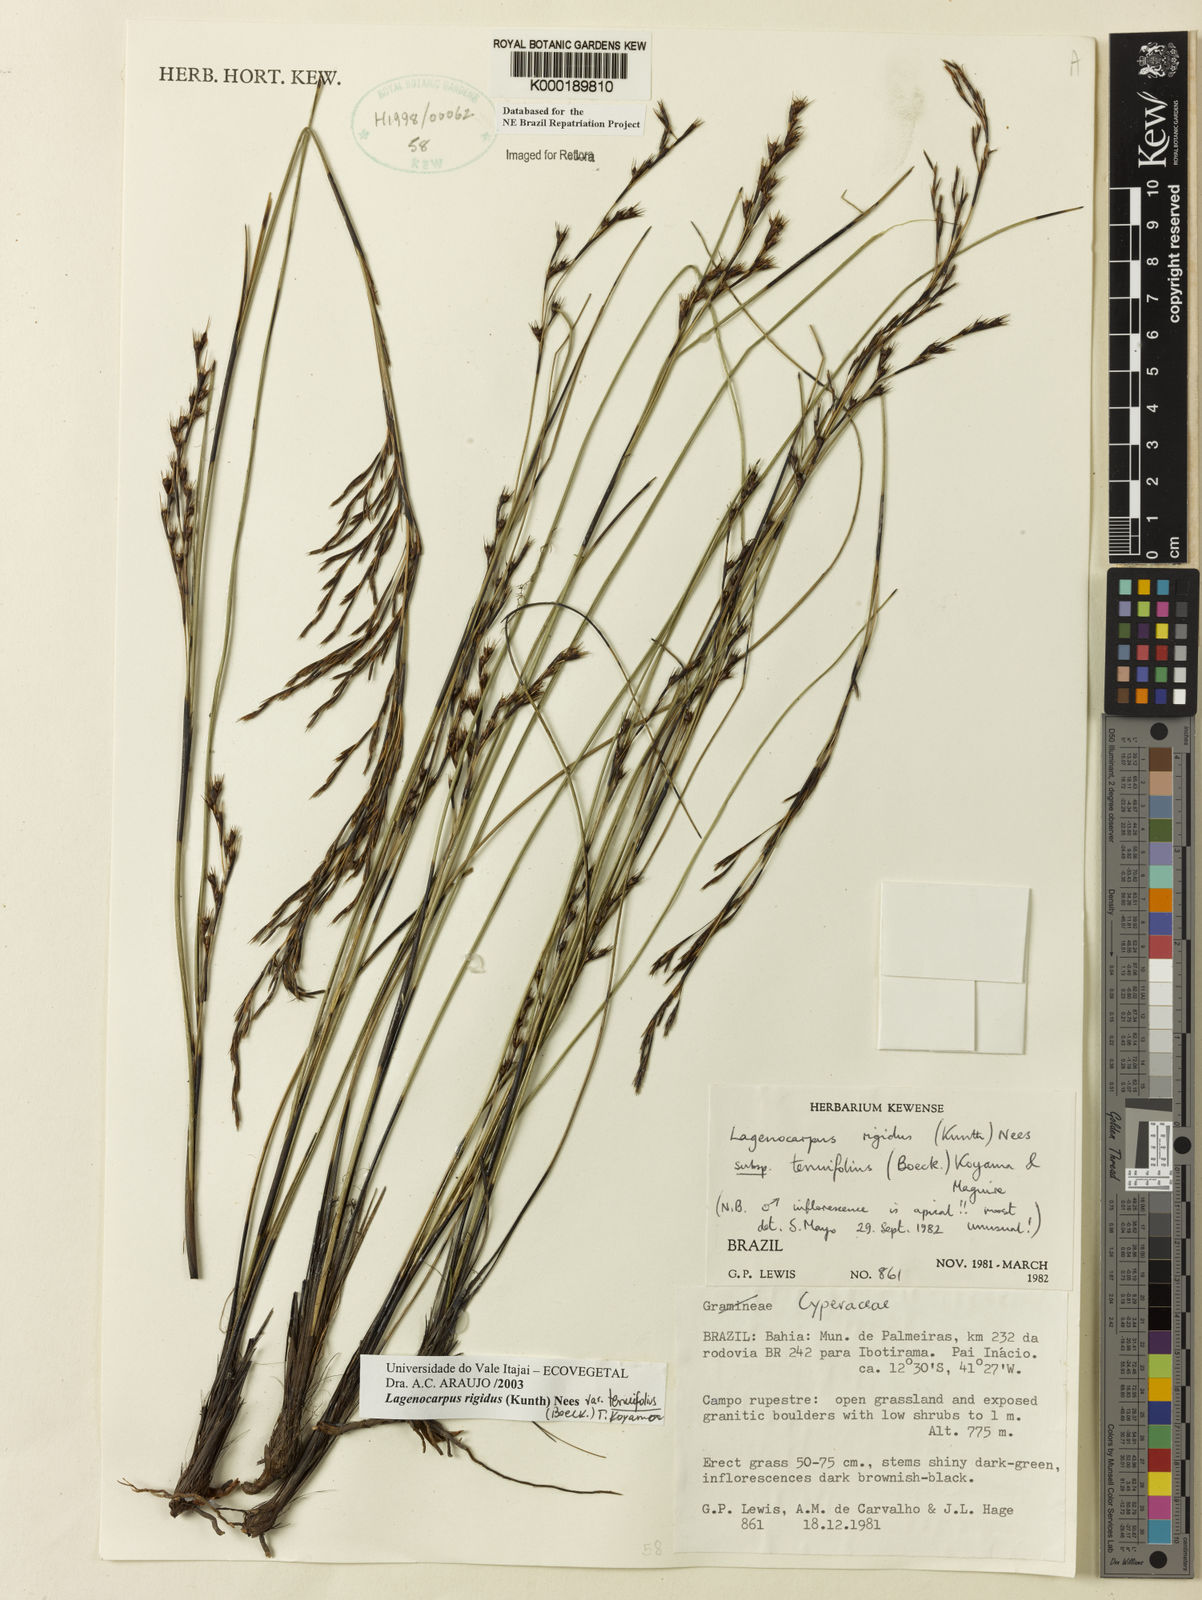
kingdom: Plantae
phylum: Tracheophyta
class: Liliopsida
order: Poales
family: Cyperaceae
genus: Lagenocarpus
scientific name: Lagenocarpus rigidus
